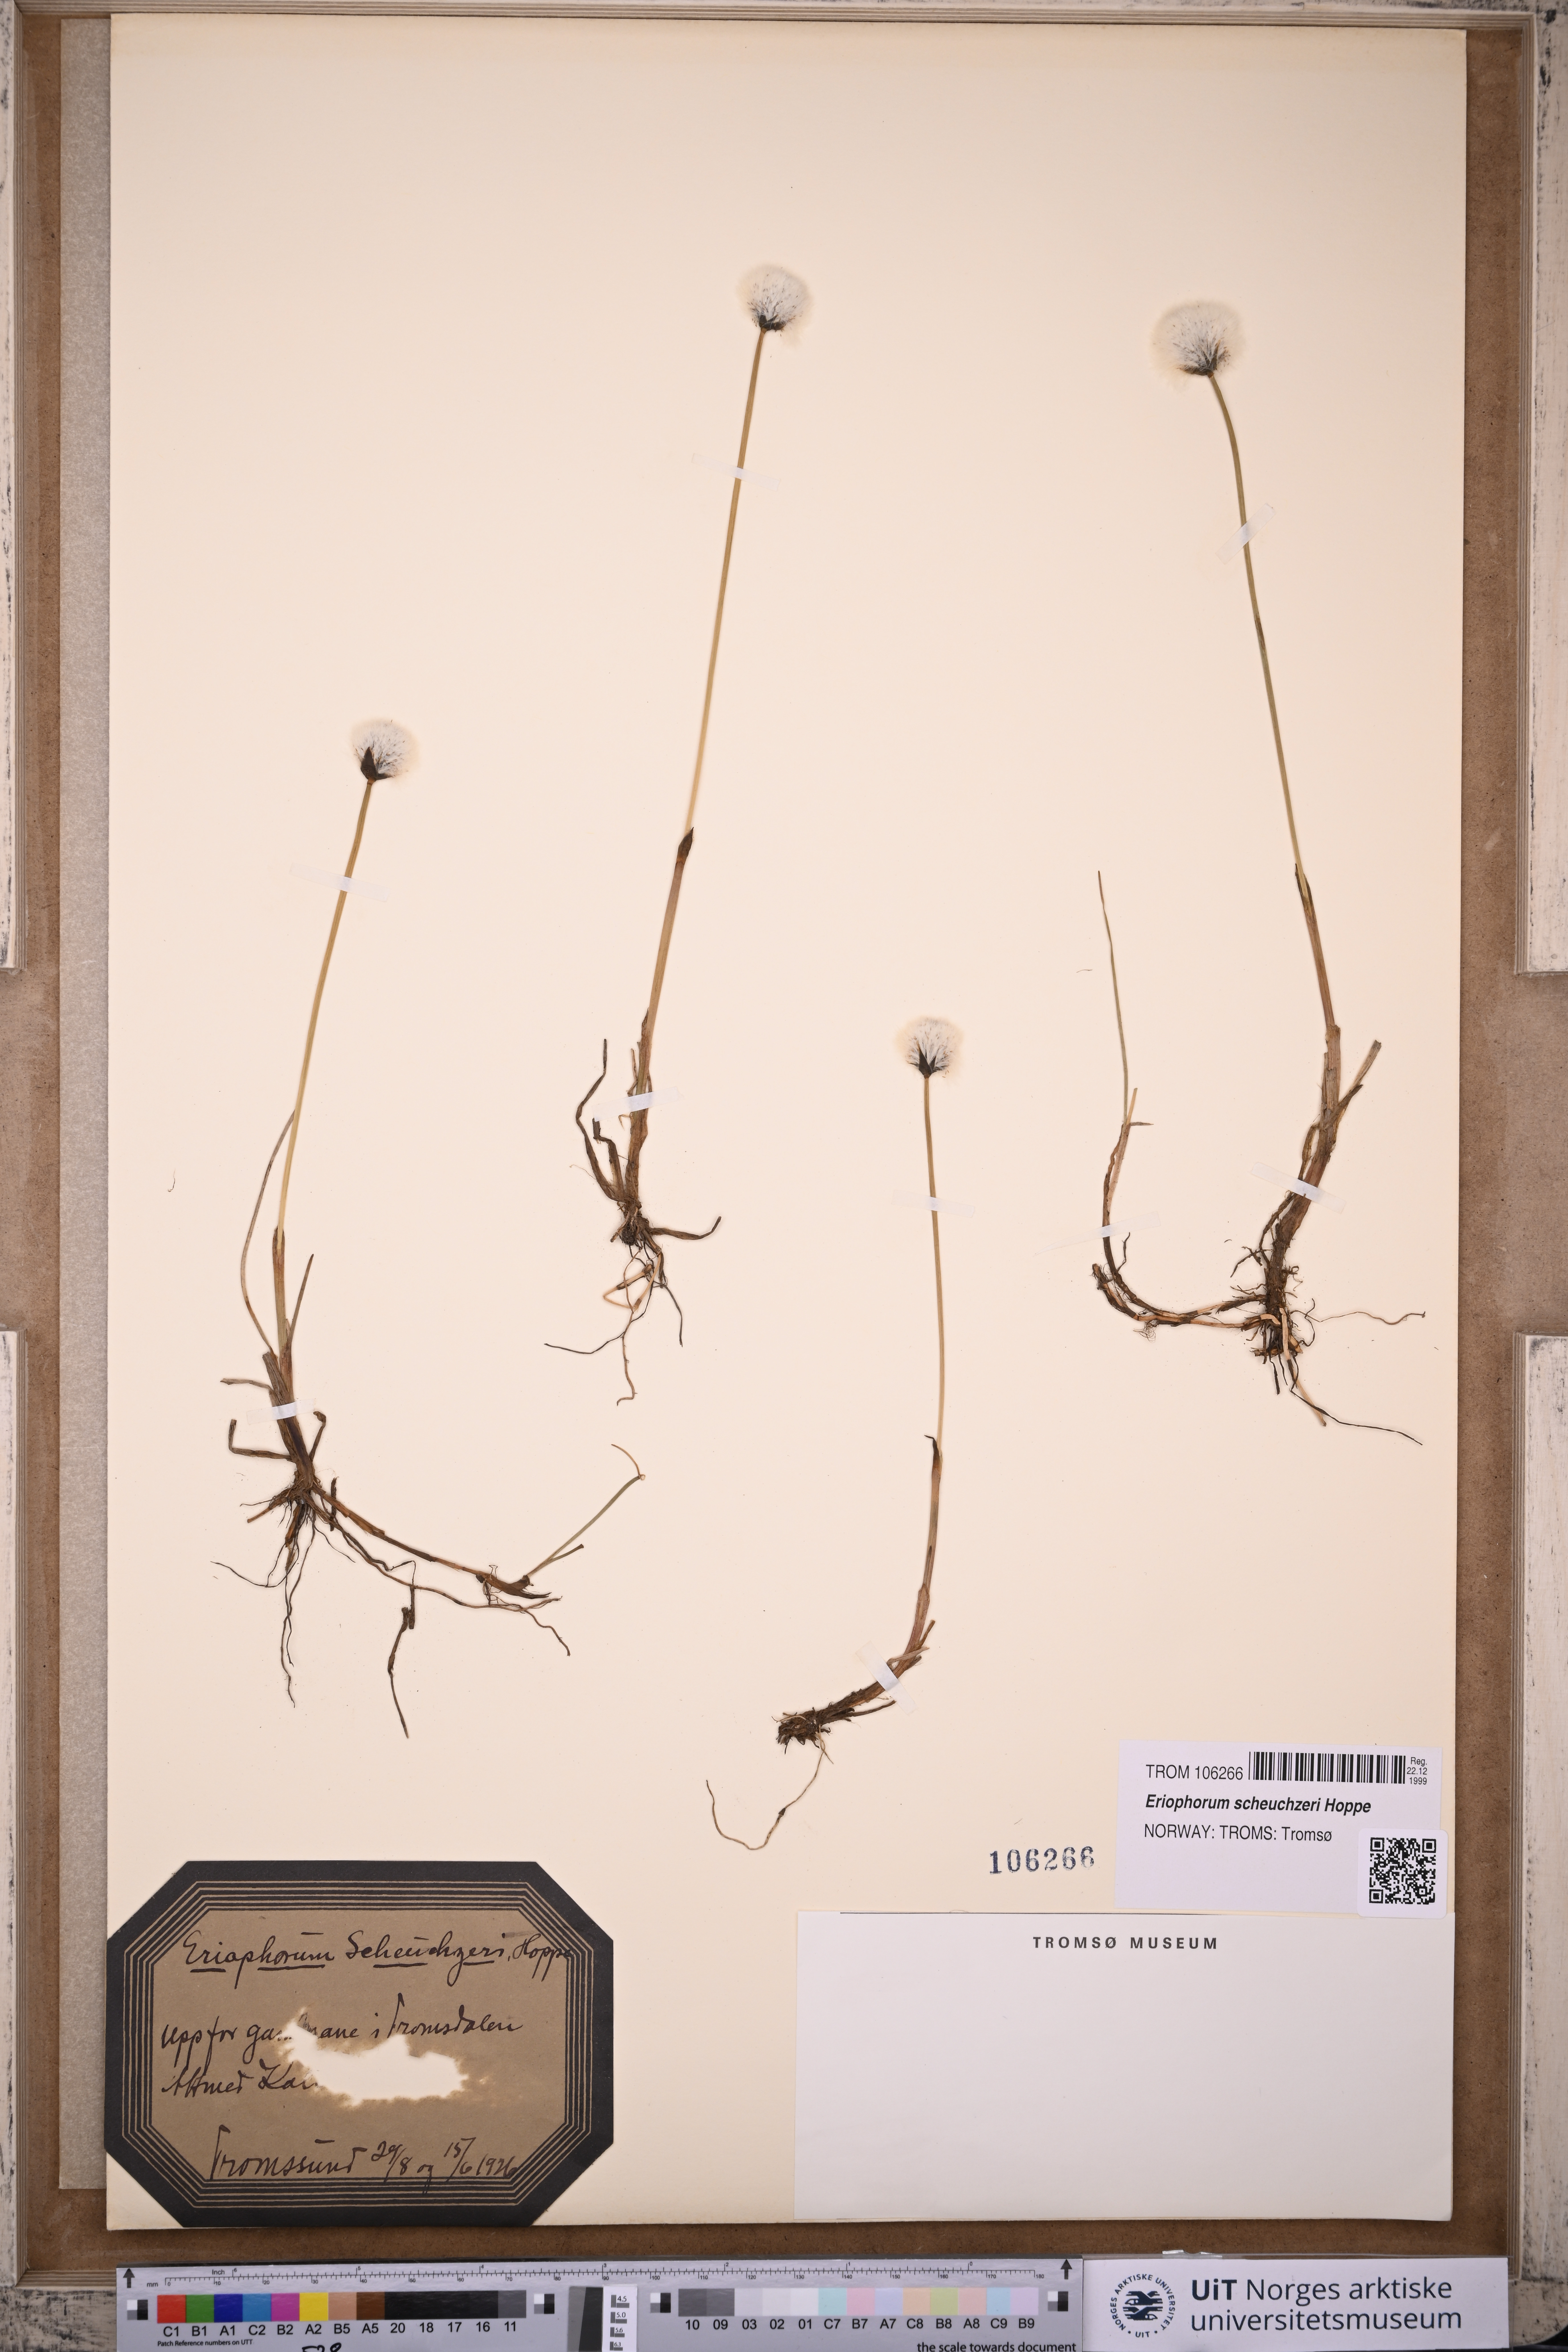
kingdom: Plantae
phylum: Tracheophyta
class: Liliopsida
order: Poales
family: Cyperaceae
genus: Eriophorum
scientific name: Eriophorum scheuchzeri
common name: Scheuchzer's cottongrass
